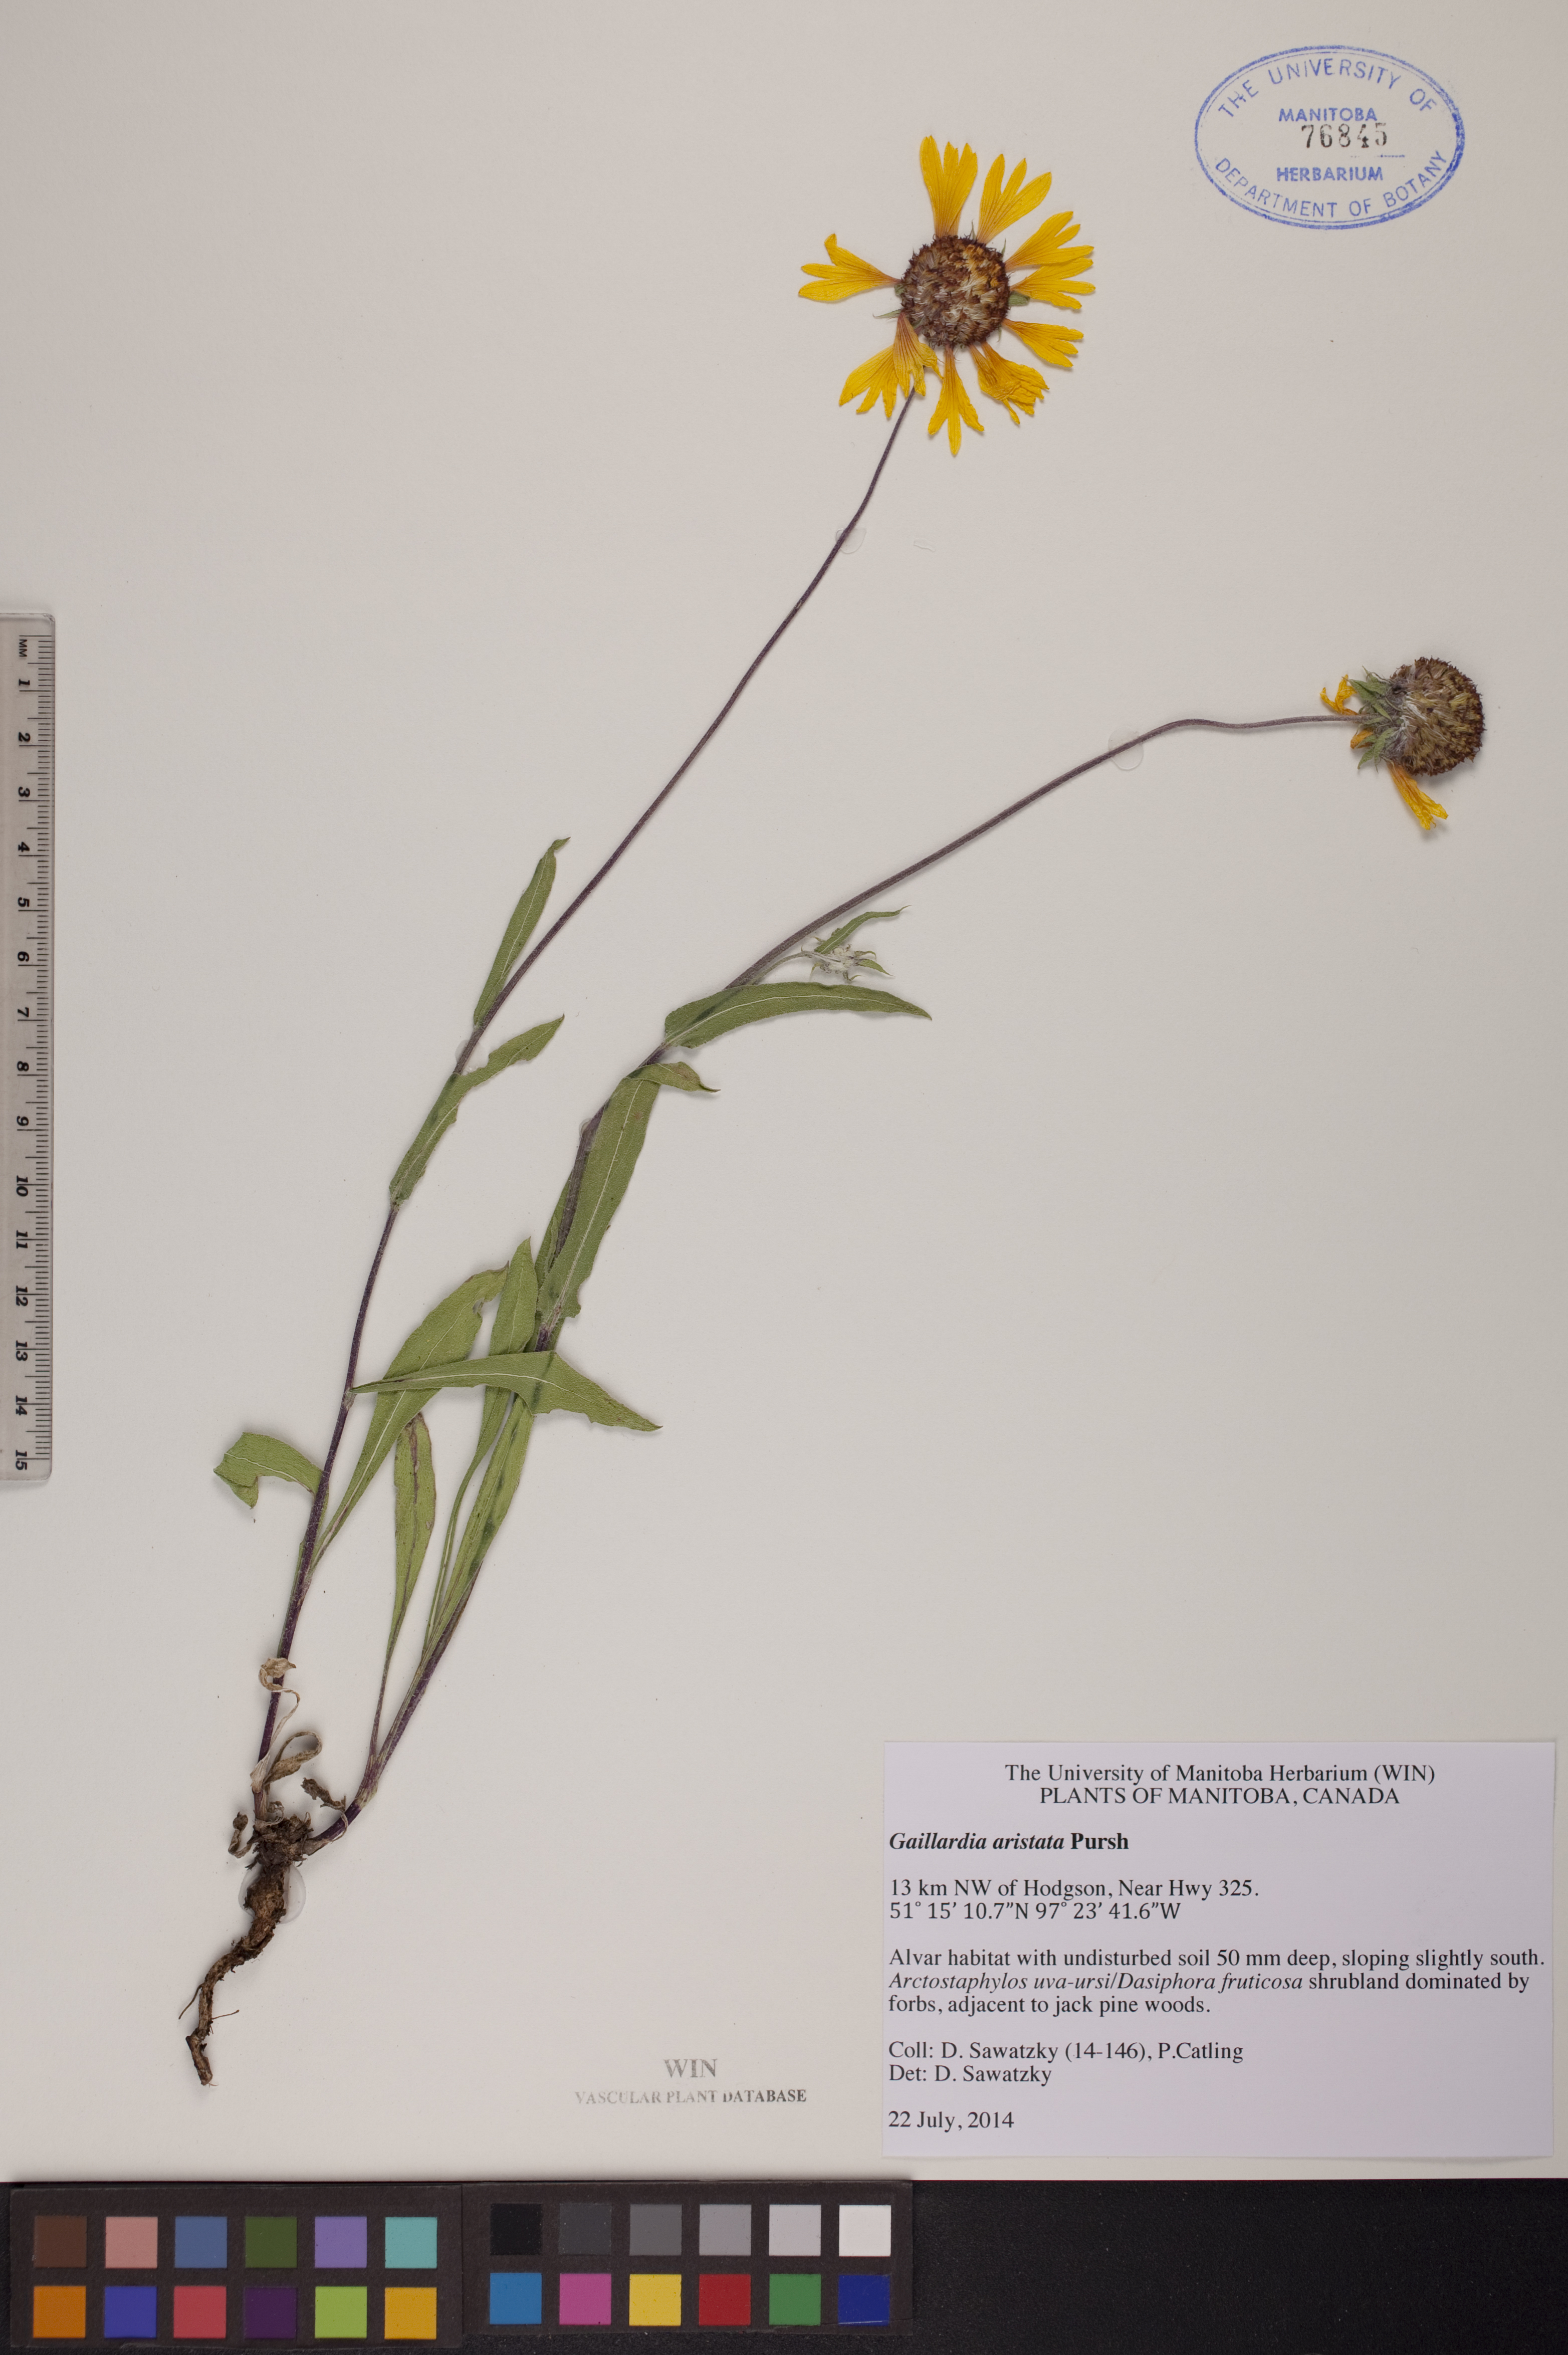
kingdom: Plantae
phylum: Tracheophyta
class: Magnoliopsida
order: Asterales
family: Asteraceae
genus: Gaillardia
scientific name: Gaillardia aristata
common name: Blanket-flower
